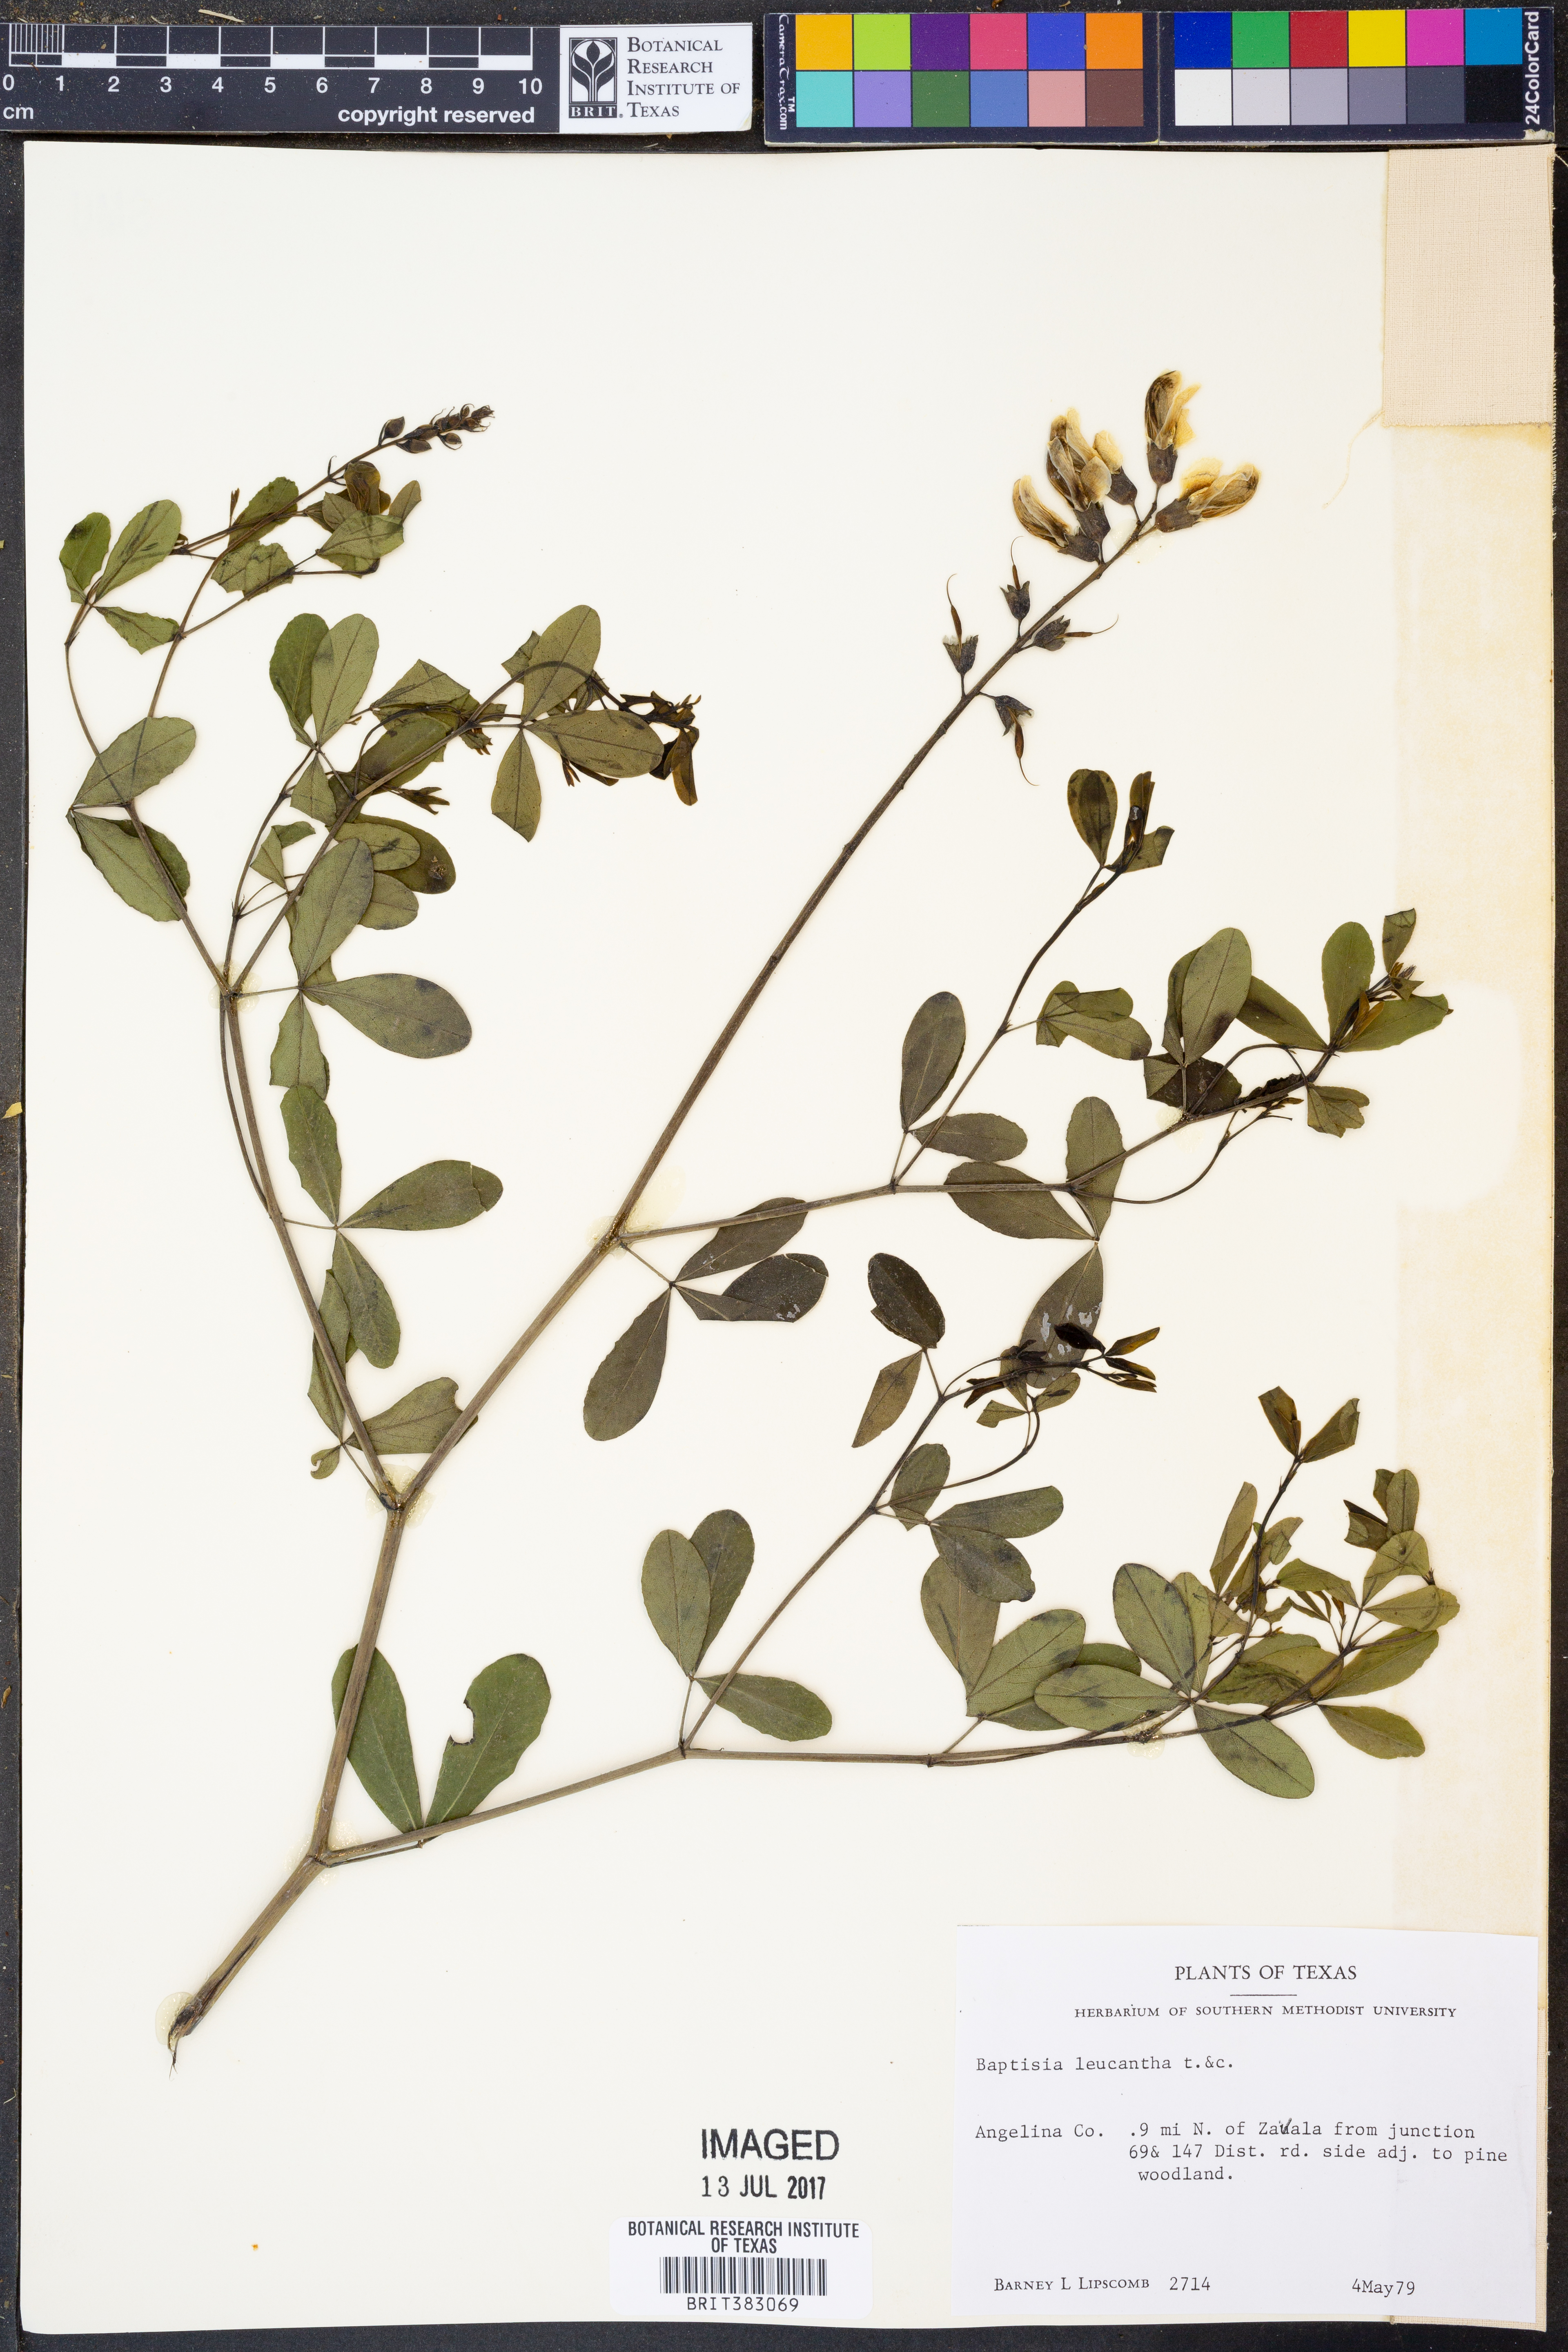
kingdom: Plantae
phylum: Tracheophyta
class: Magnoliopsida
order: Fabales
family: Fabaceae
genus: Baptisia
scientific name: Baptisia alba
